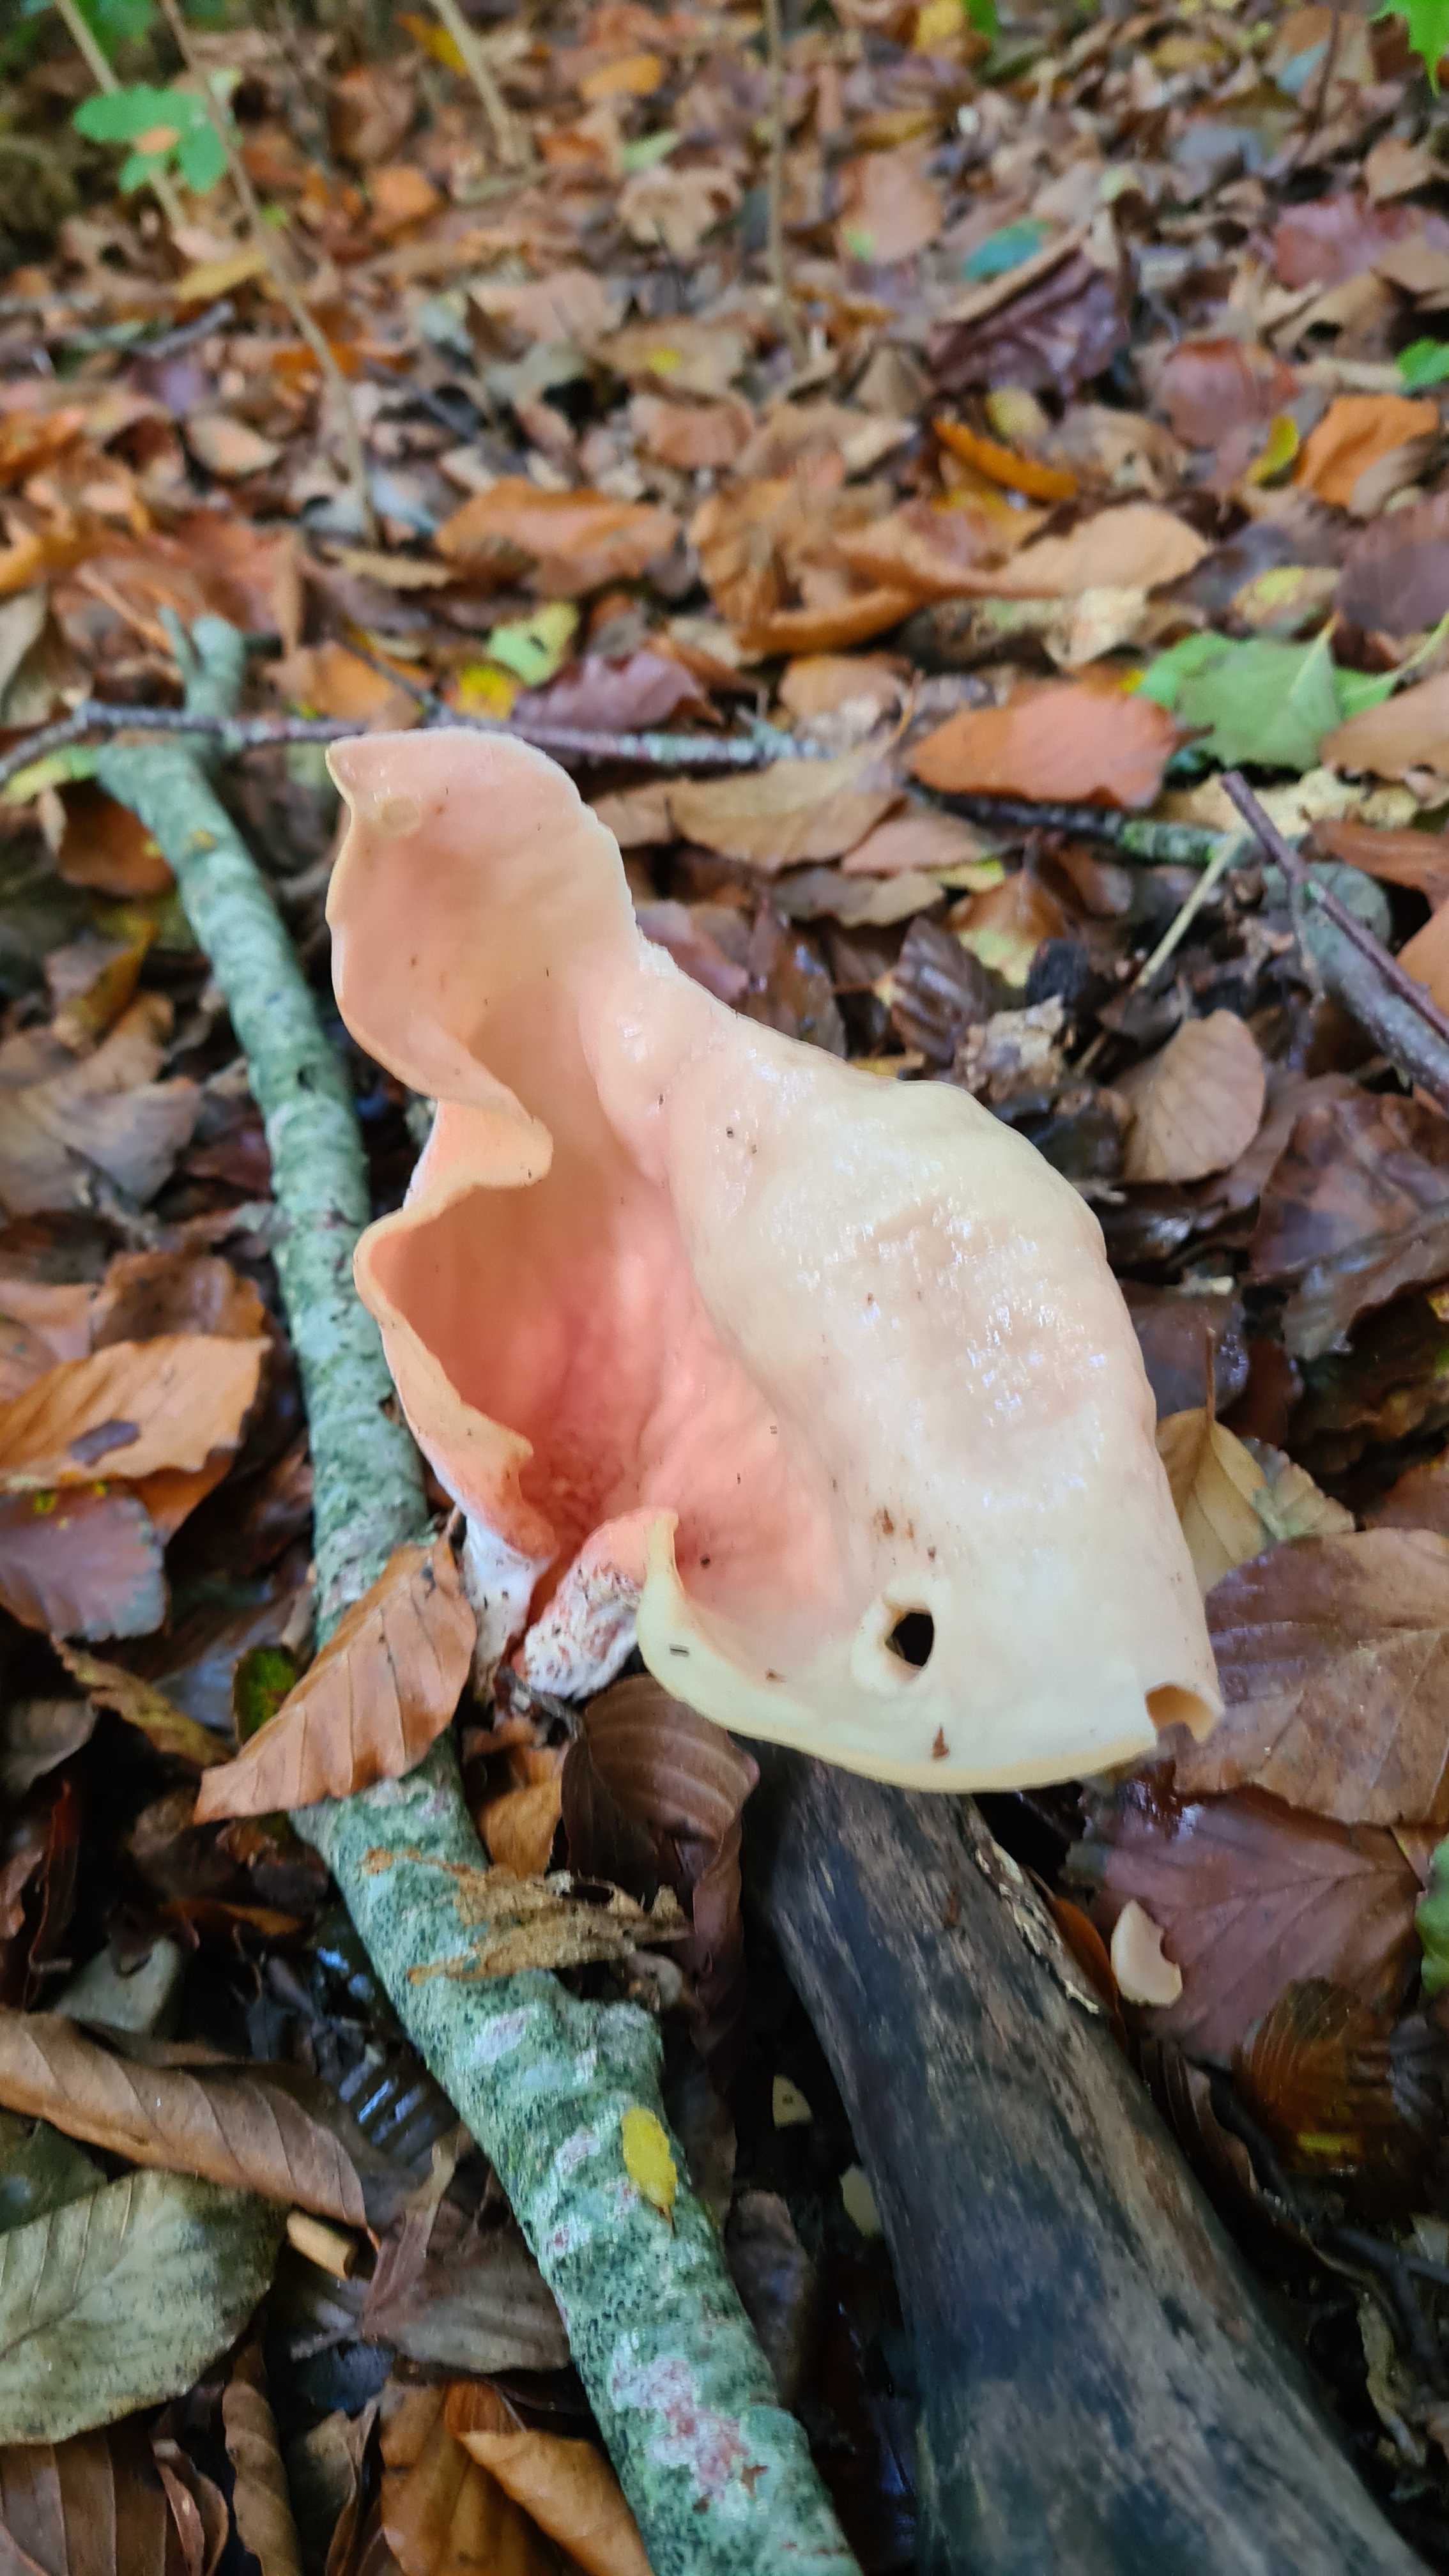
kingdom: Fungi
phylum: Ascomycota
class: Pezizomycetes
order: Pezizales
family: Otideaceae
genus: Otidea
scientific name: Otidea onotica
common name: æsel-ørebæger
